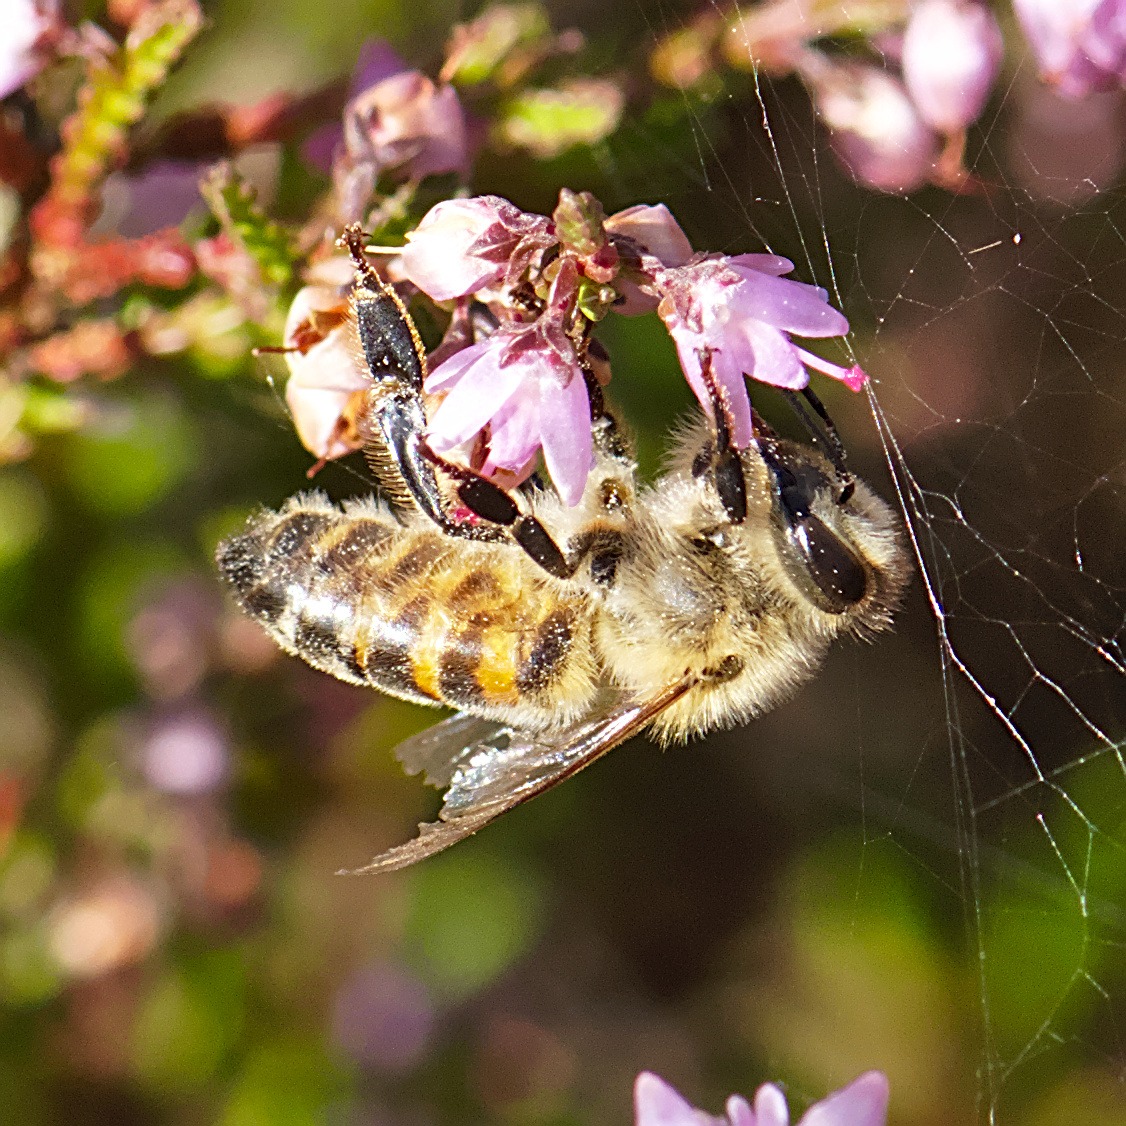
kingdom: Animalia
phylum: Arthropoda
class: Insecta
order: Hymenoptera
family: Apidae
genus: Apis
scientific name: Apis mellifera
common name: Honningbi
